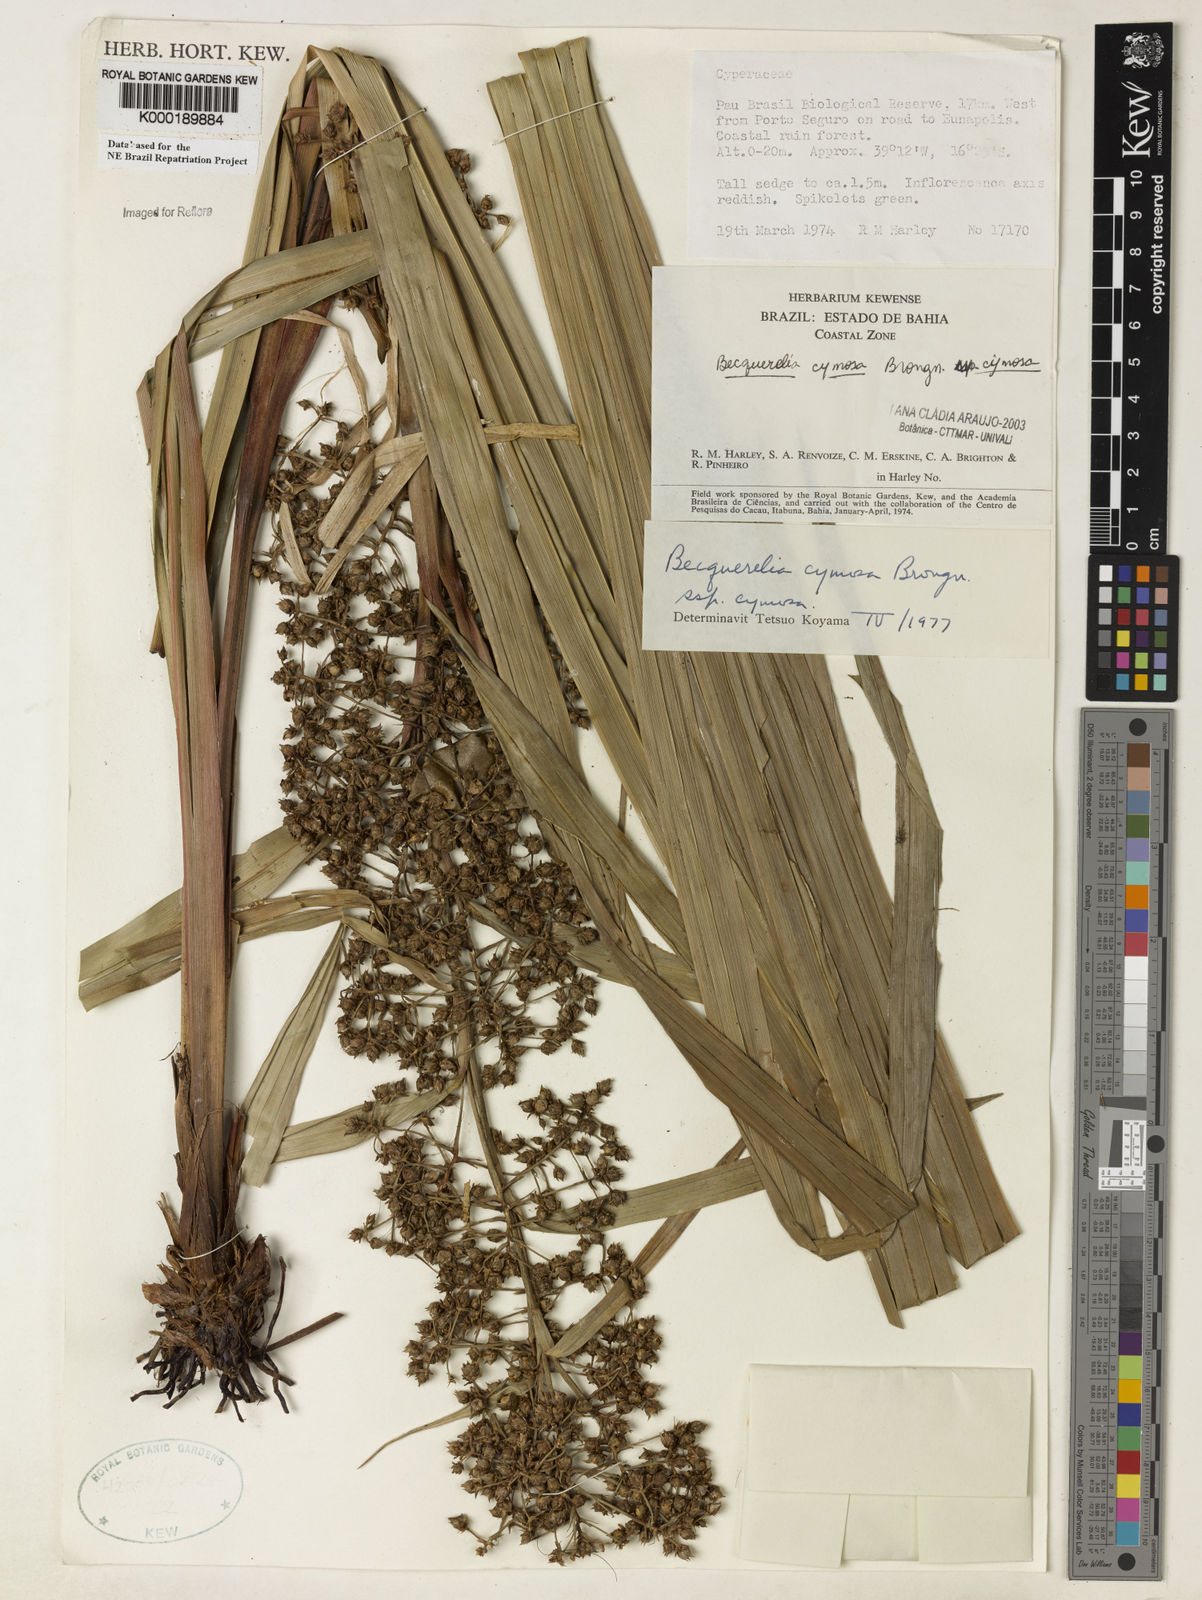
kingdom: Plantae
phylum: Tracheophyta
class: Liliopsida
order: Poales
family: Cyperaceae
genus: Becquerelia
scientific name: Becquerelia cymosa
